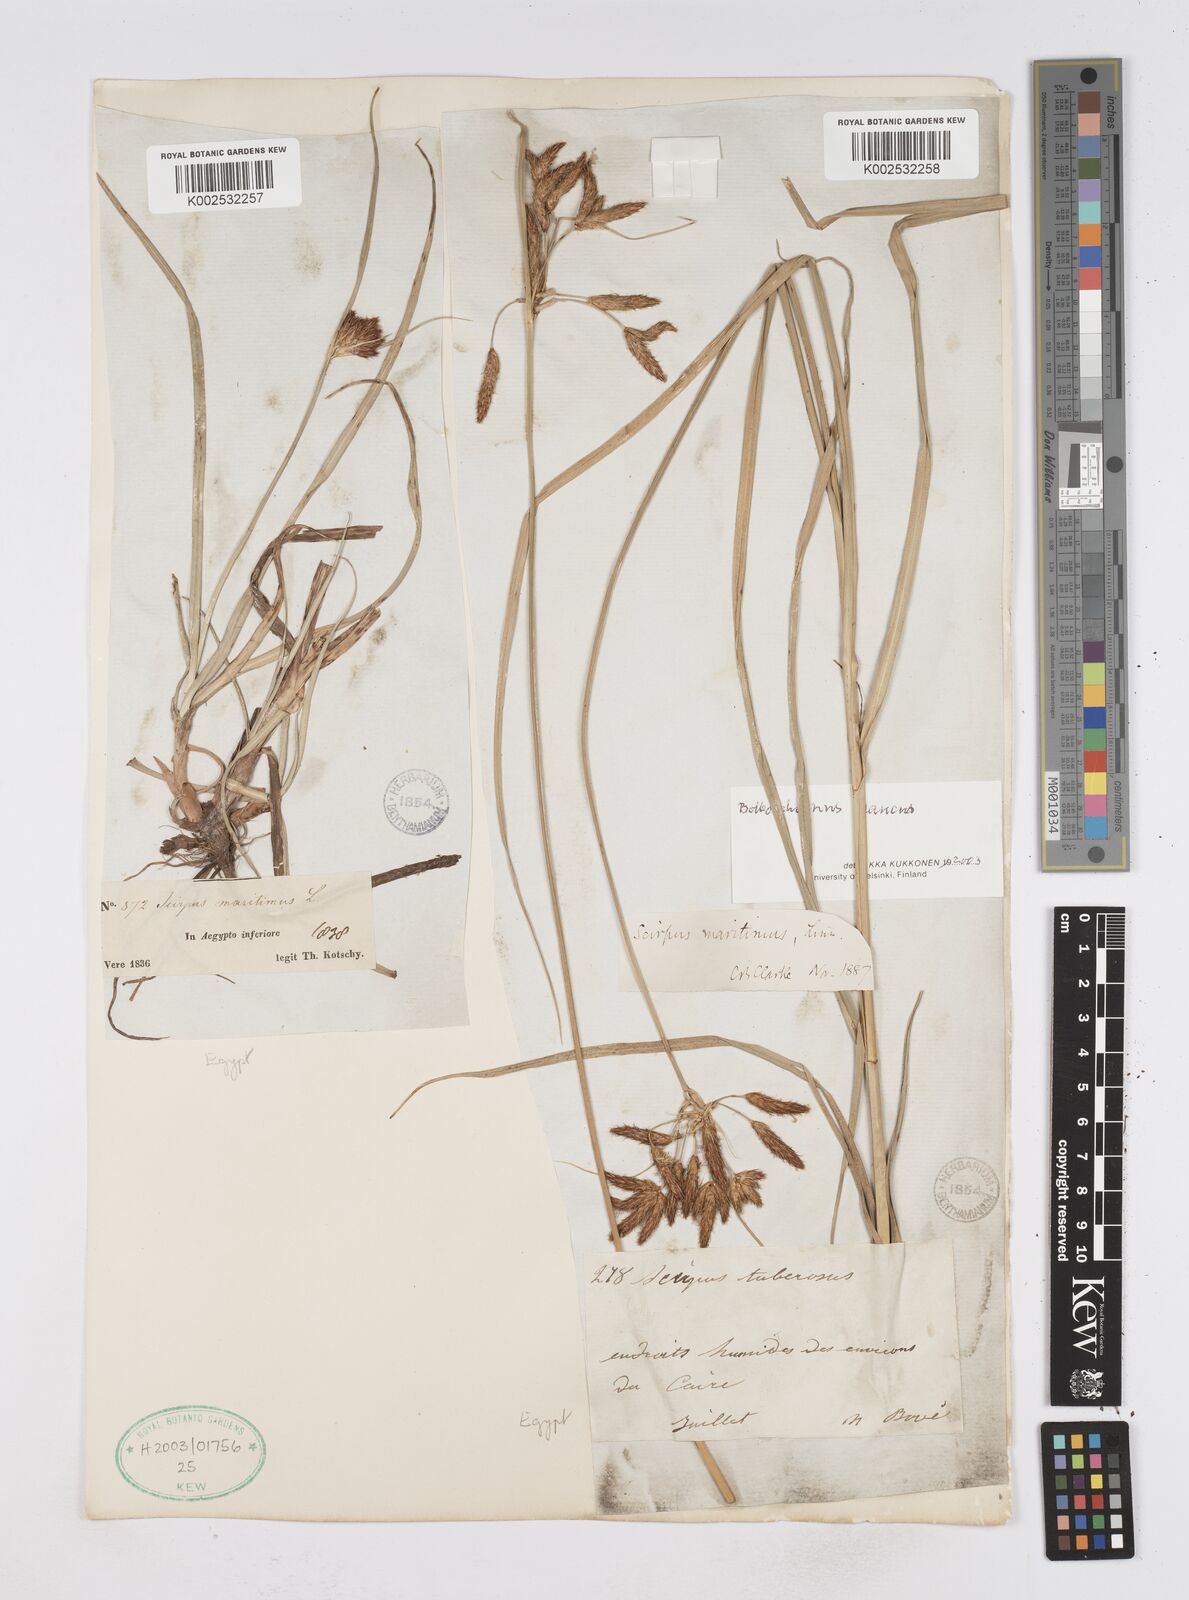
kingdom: Plantae
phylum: Tracheophyta
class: Liliopsida
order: Poales
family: Cyperaceae
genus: Bolboschoenus
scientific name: Bolboschoenus maritimus
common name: Sea club-rush
